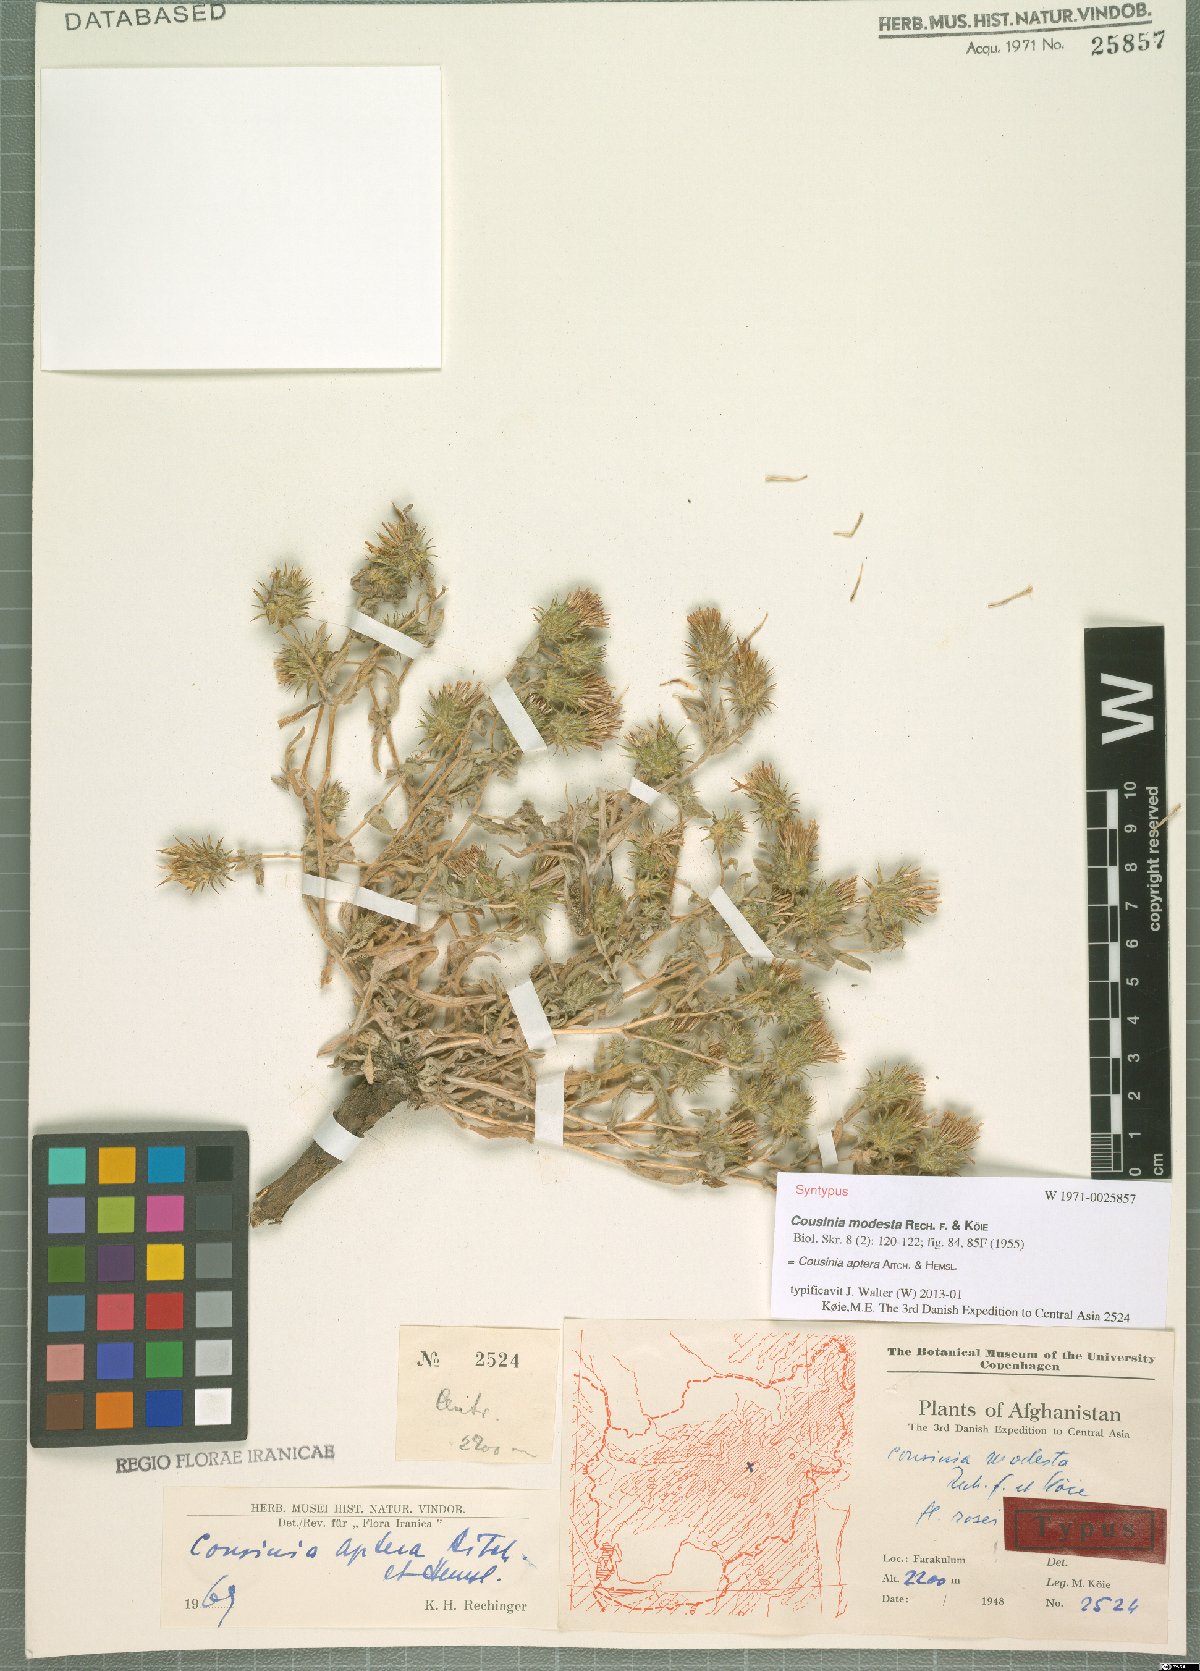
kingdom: Plantae
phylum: Tracheophyta
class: Magnoliopsida
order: Asterales
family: Asteraceae
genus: Cousinia
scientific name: Cousinia aptera
